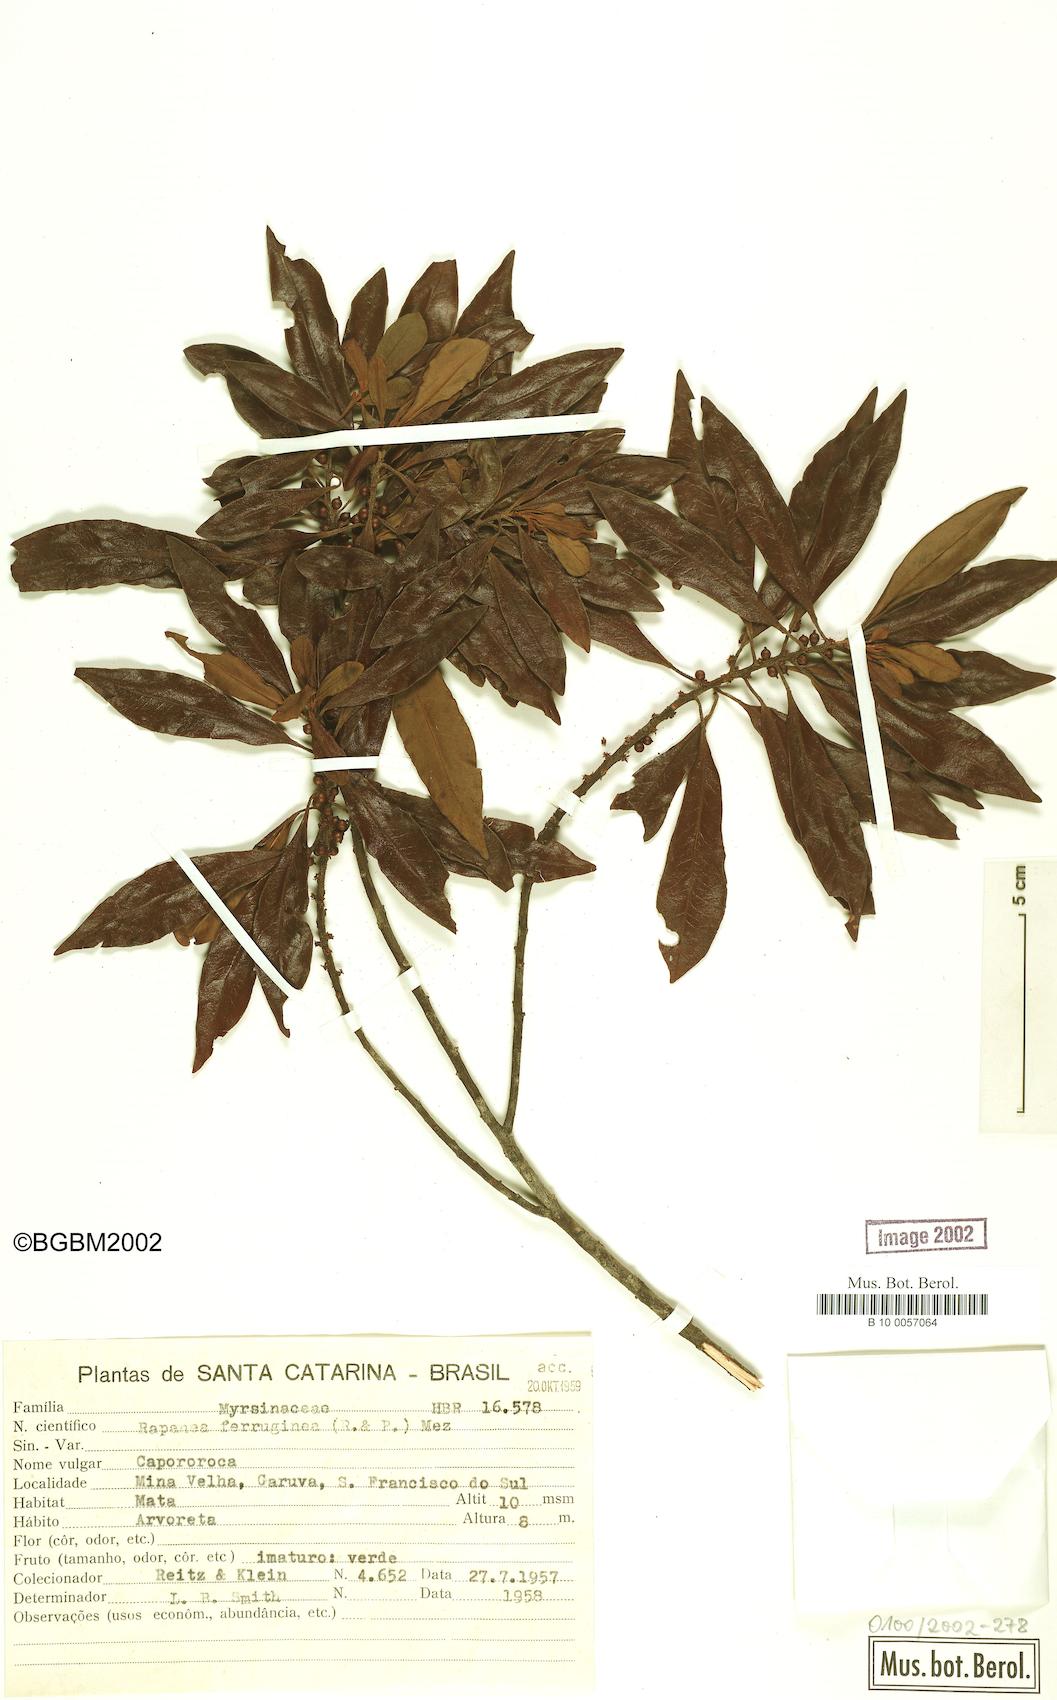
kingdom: Plantae
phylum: Tracheophyta
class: Magnoliopsida
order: Ericales
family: Primulaceae
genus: Myrsine
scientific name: Myrsine coriacea
